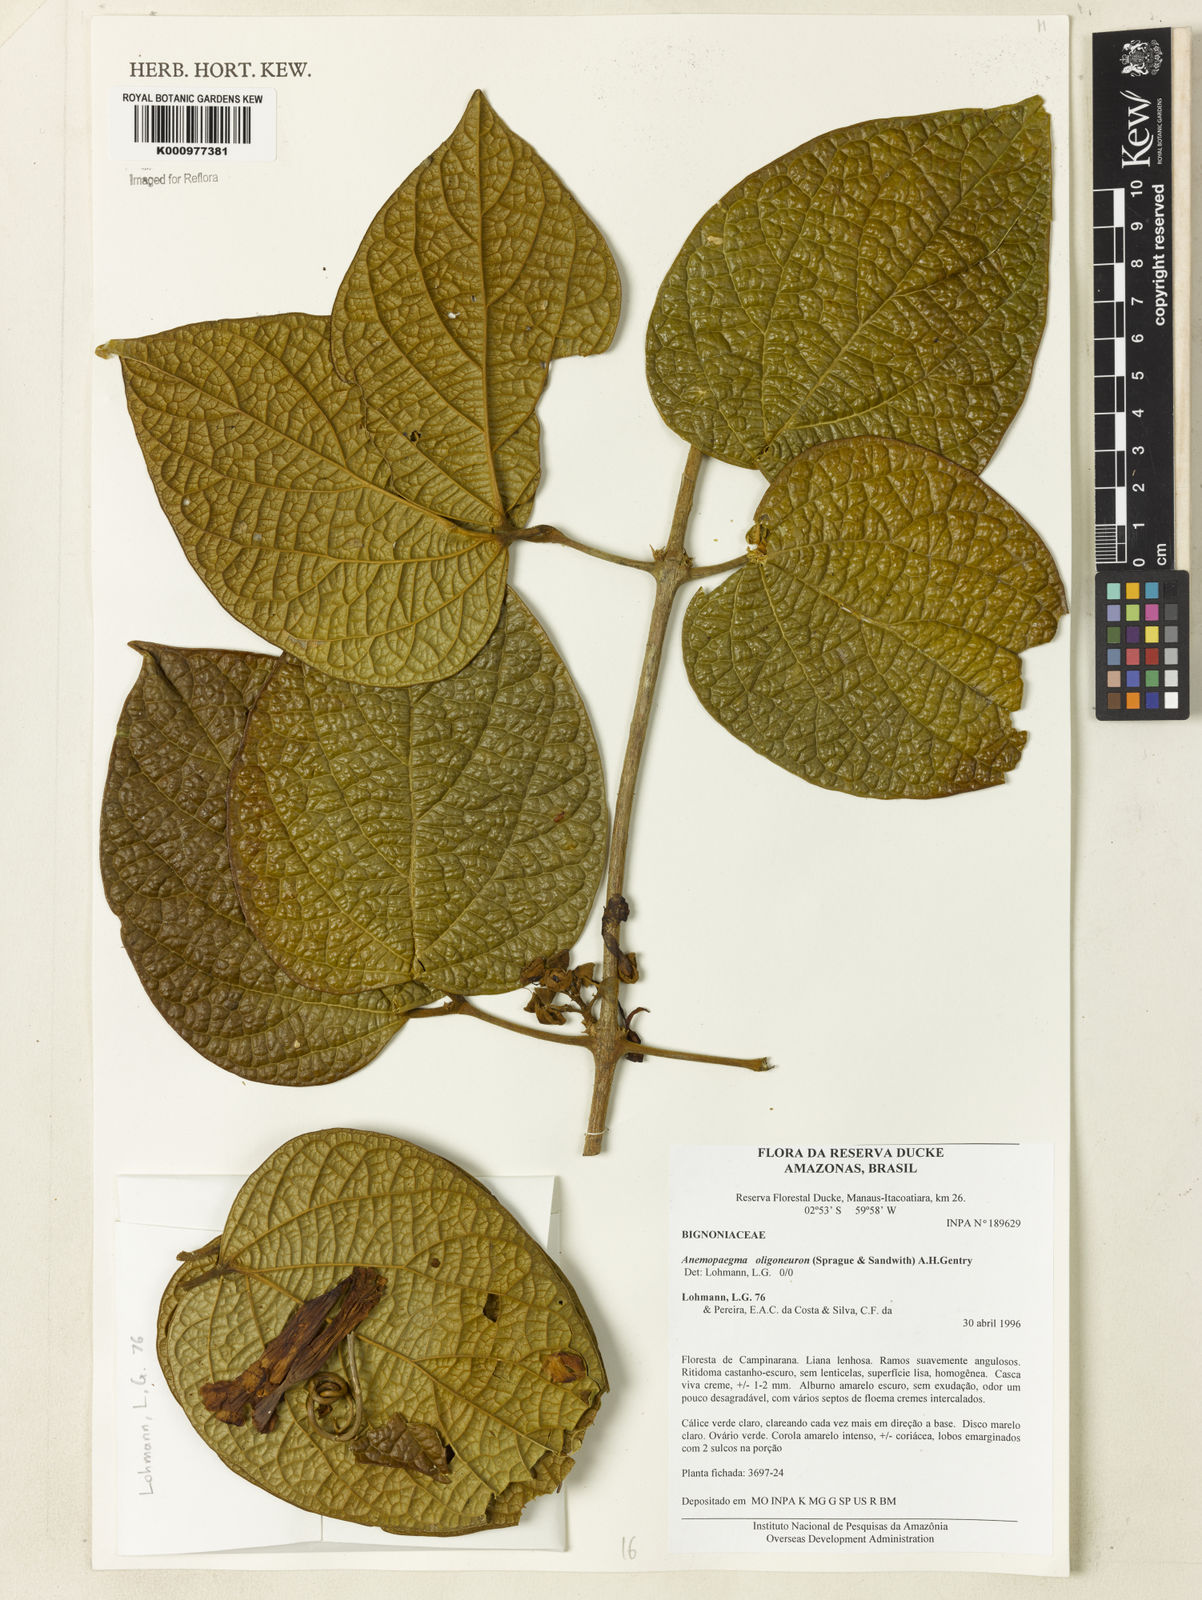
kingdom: Plantae
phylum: Tracheophyta
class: Magnoliopsida
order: Lamiales
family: Bignoniaceae
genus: Anemopaegma
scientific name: Anemopaegma oligoneuron
